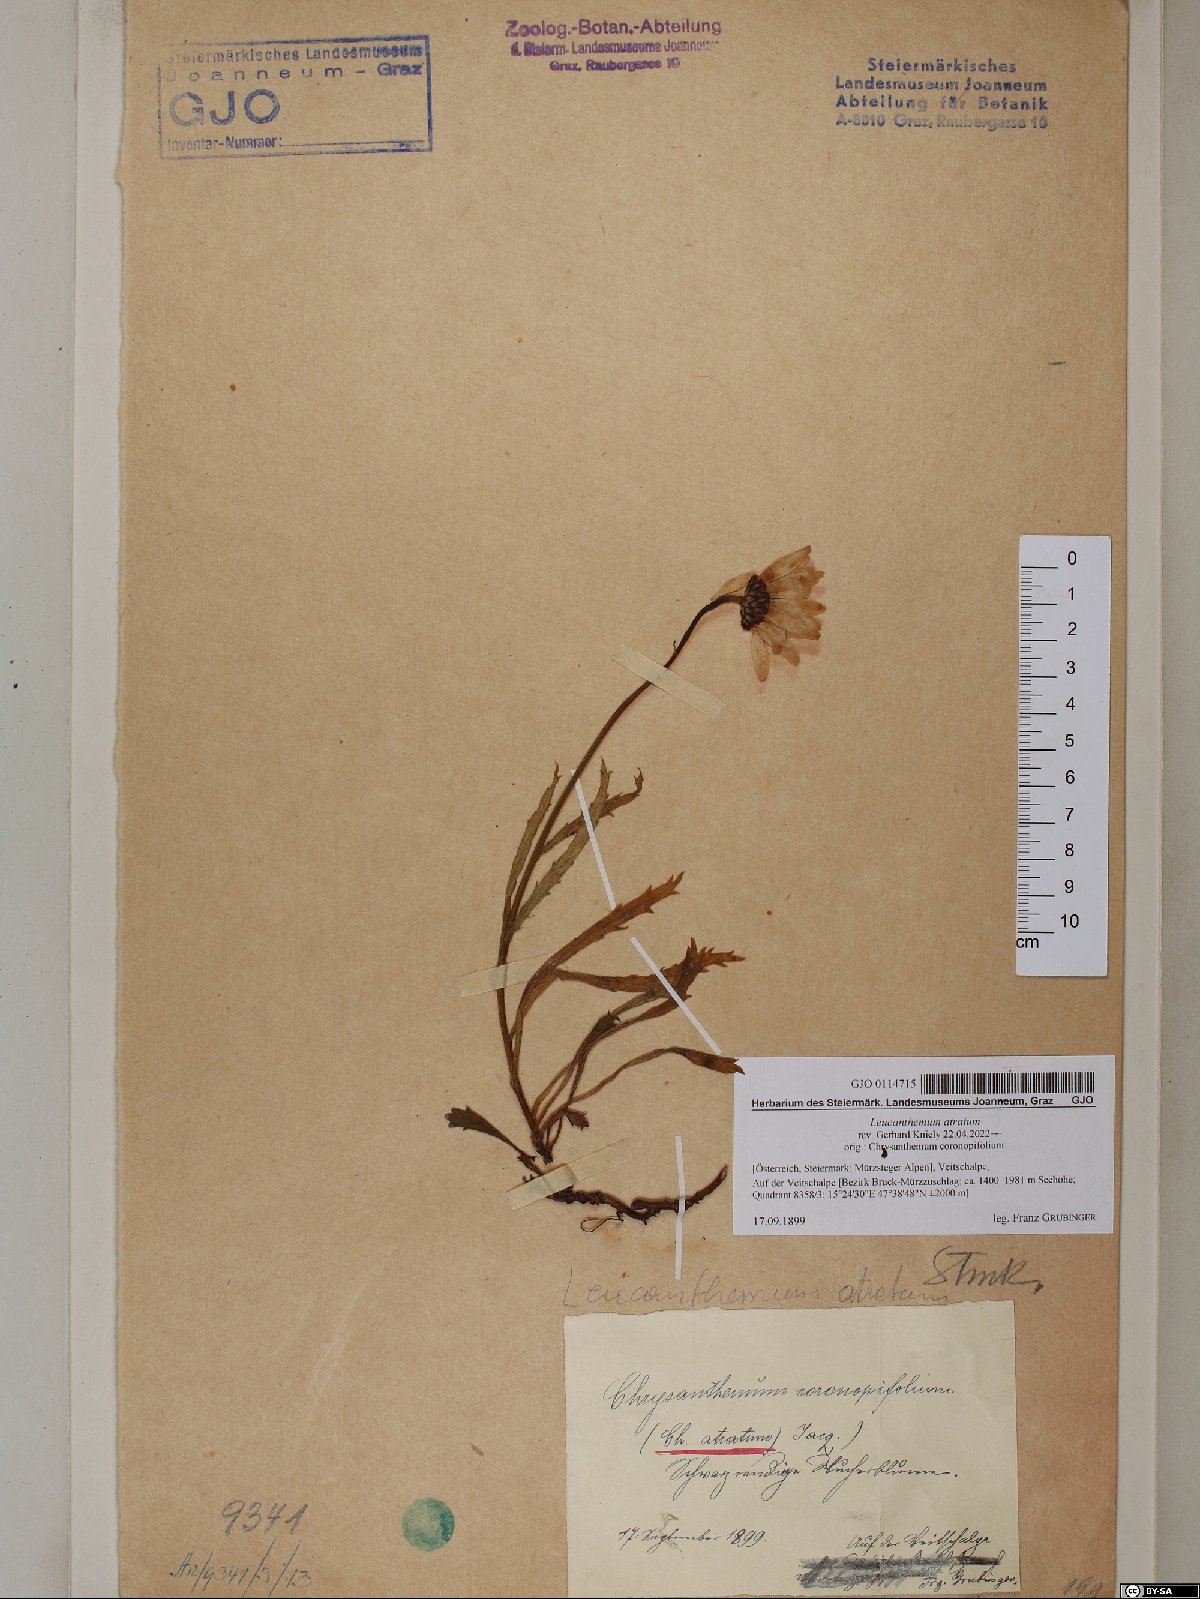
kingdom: Plantae
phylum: Tracheophyta
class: Magnoliopsida
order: Asterales
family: Asteraceae
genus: Leucanthemum
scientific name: Leucanthemum atratum
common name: Saw-leaved moon-daisy
